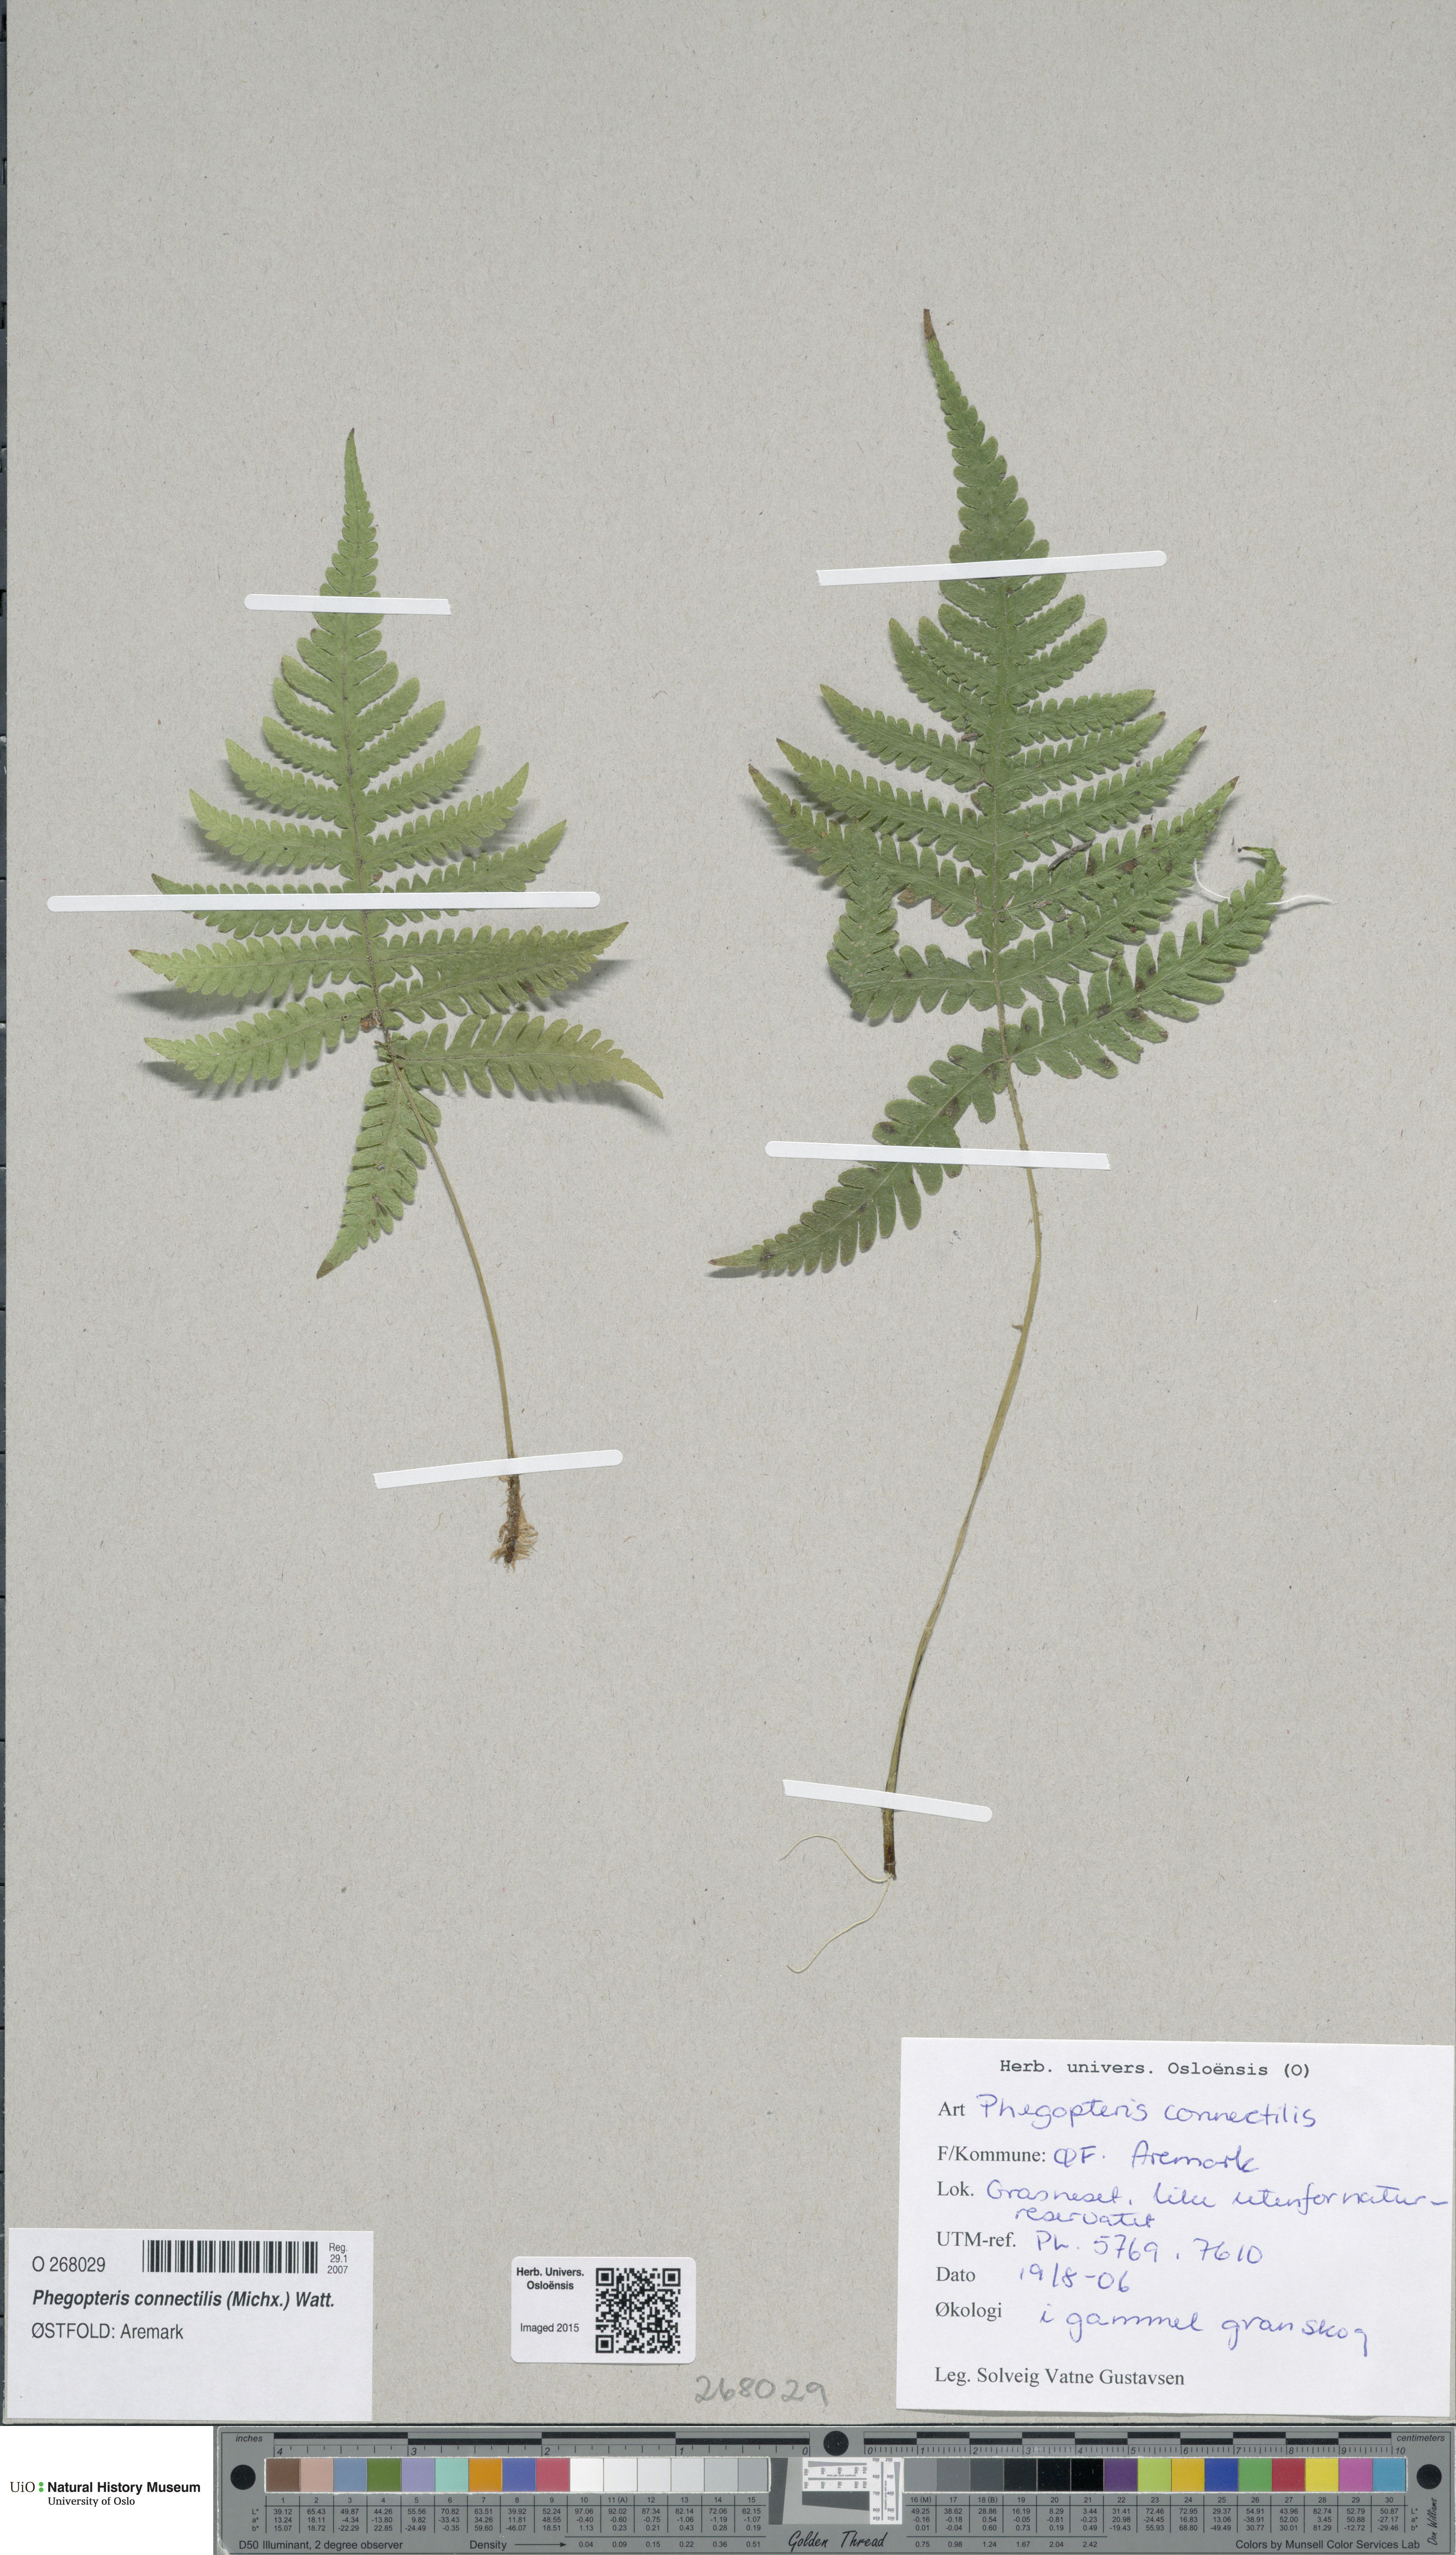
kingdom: Plantae
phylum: Tracheophyta
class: Polypodiopsida
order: Polypodiales
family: Thelypteridaceae
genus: Phegopteris
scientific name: Phegopteris connectilis
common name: Beech fern
